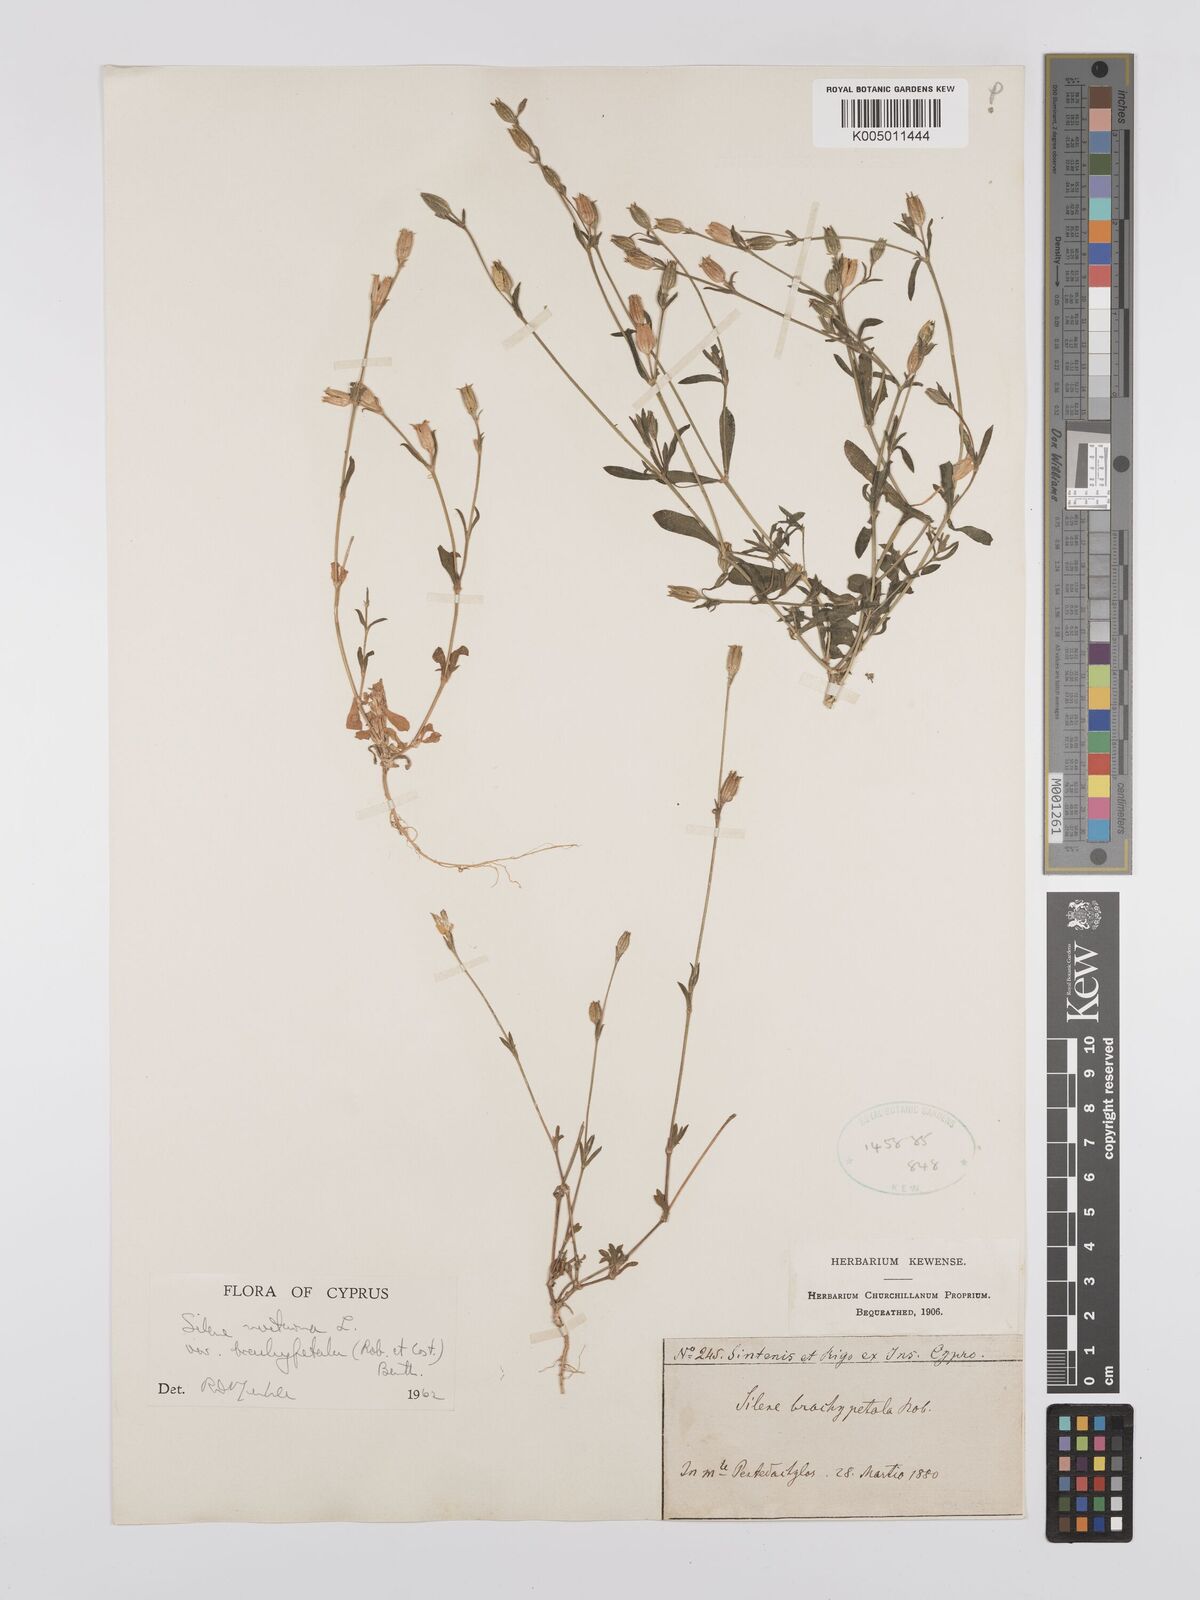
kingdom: Plantae
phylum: Tracheophyta
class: Magnoliopsida
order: Caryophyllales
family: Caryophyllaceae
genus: Silene
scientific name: Silene nocturna
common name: Mediterranean catchfly
